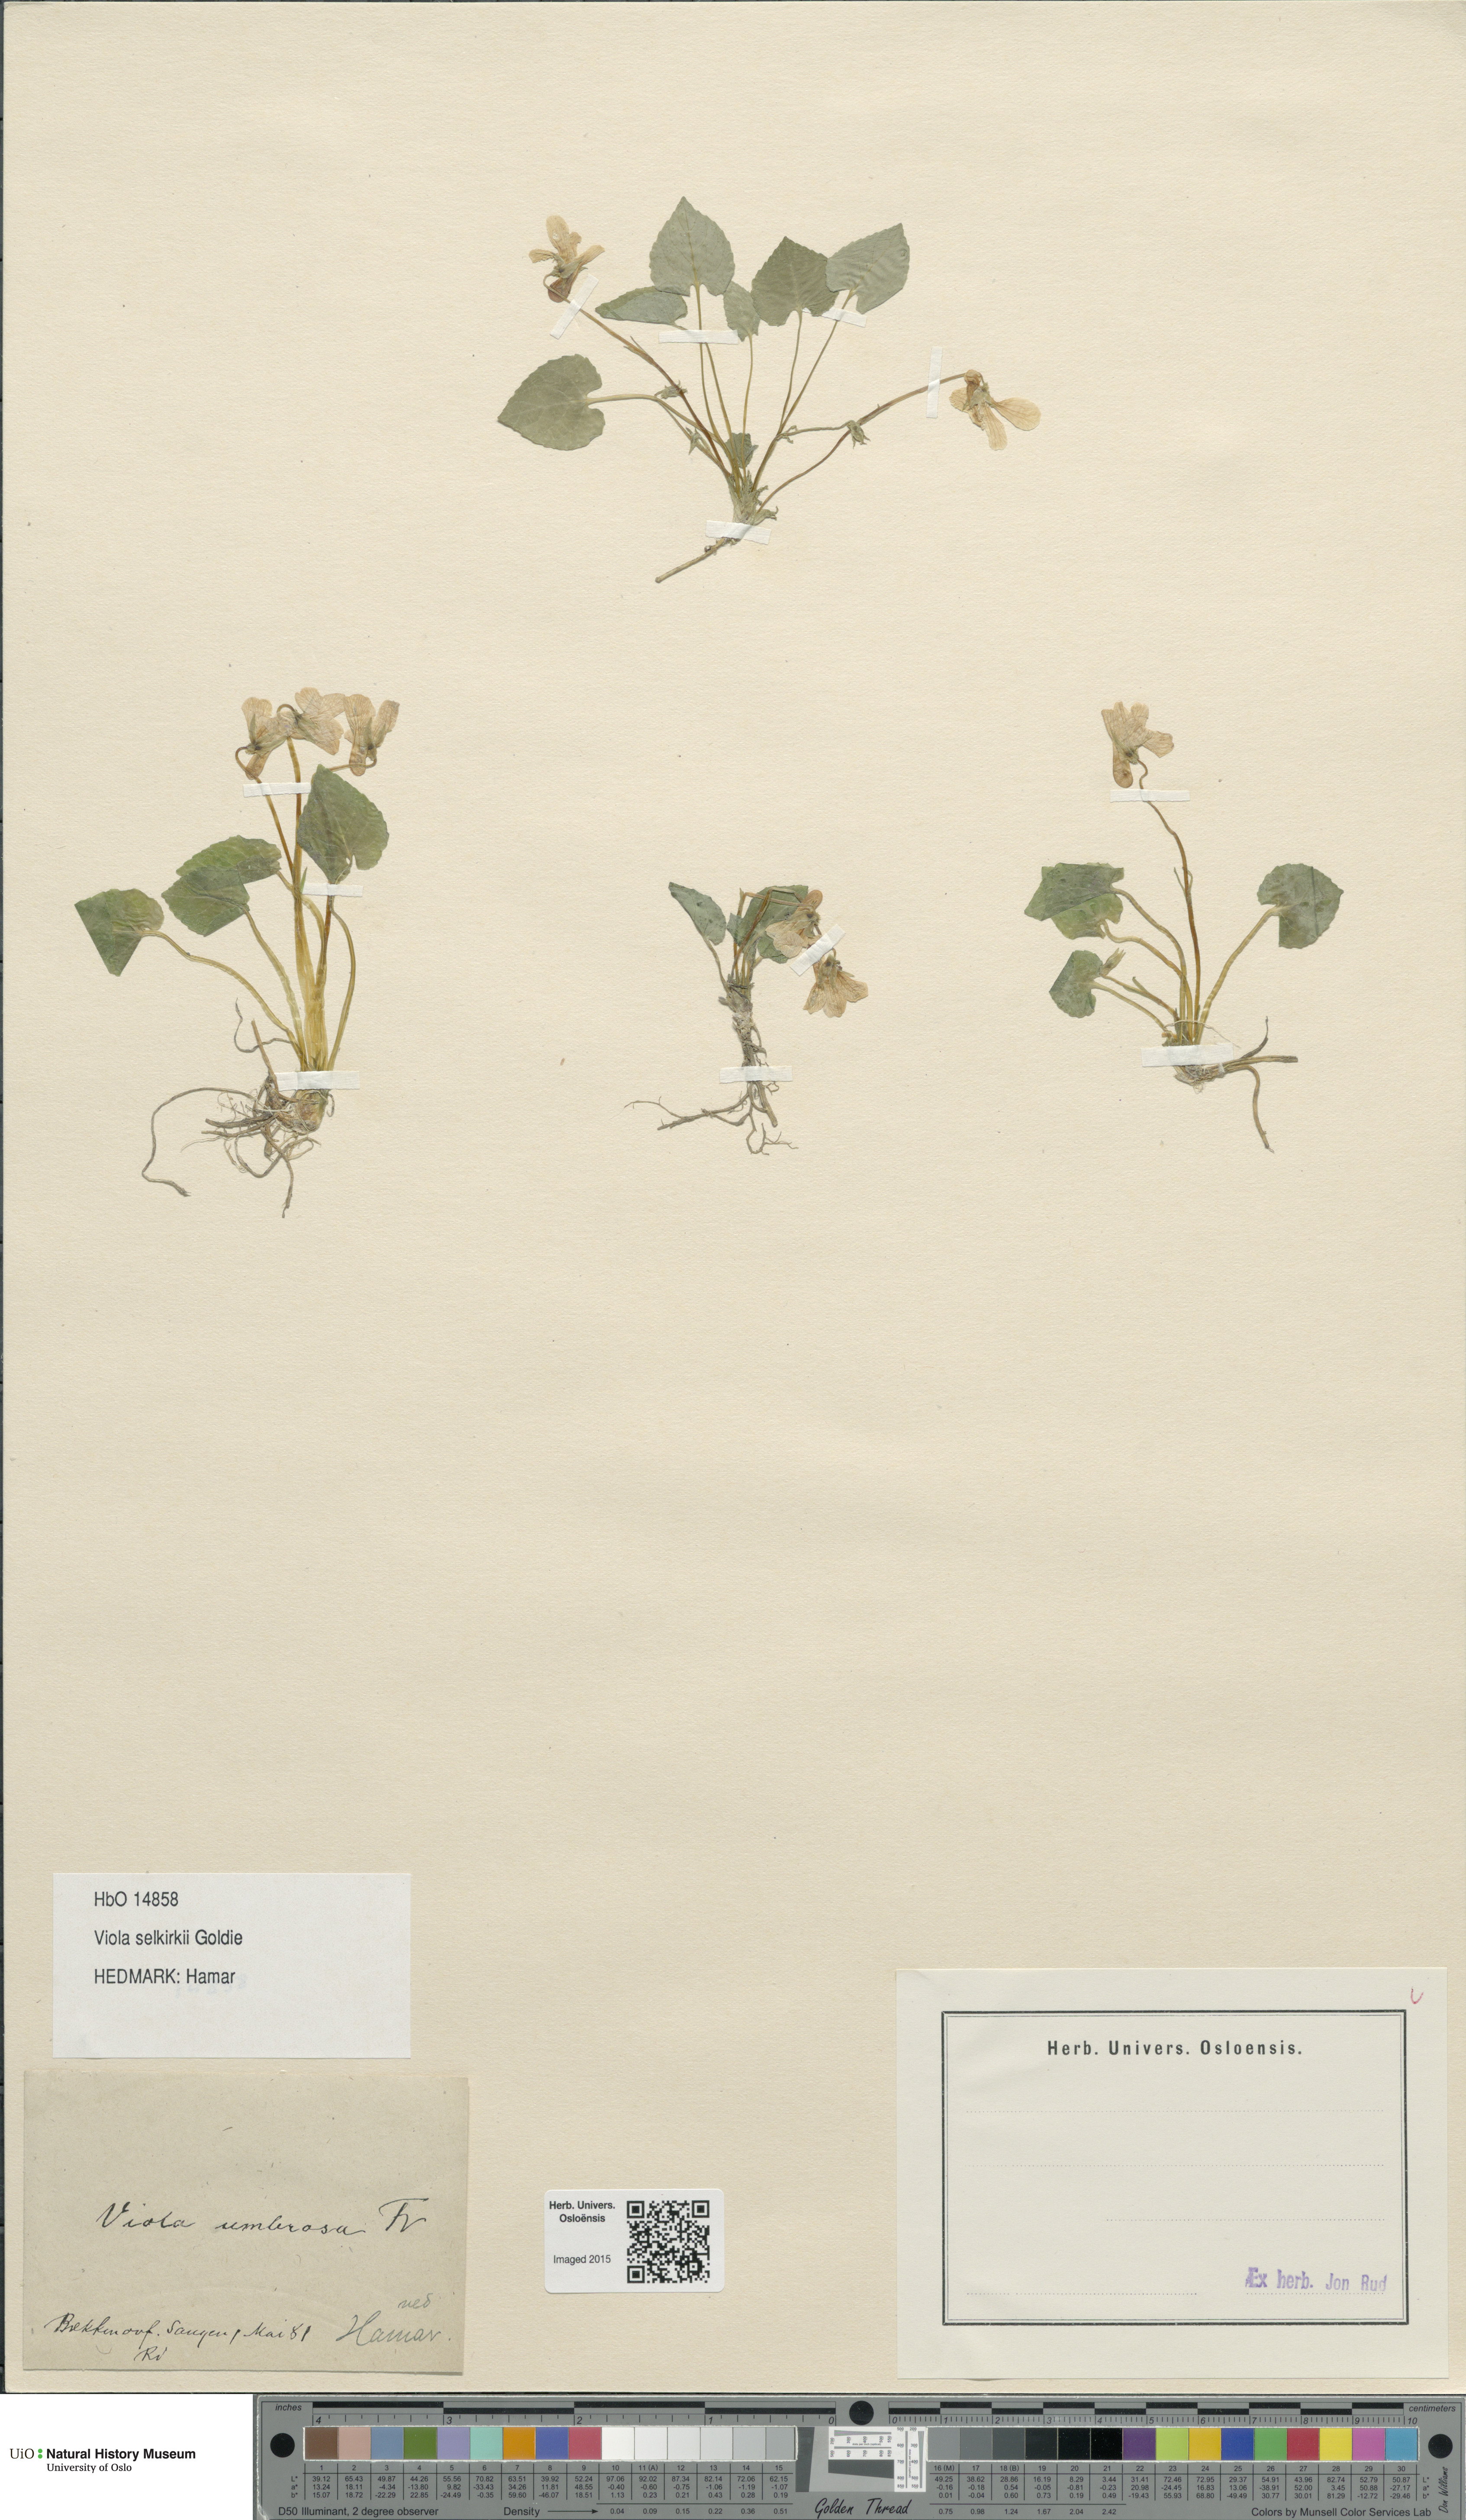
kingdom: Plantae
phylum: Tracheophyta
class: Magnoliopsida
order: Malpighiales
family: Violaceae
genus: Viola
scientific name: Viola selkirkii
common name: Selkirk's violet
